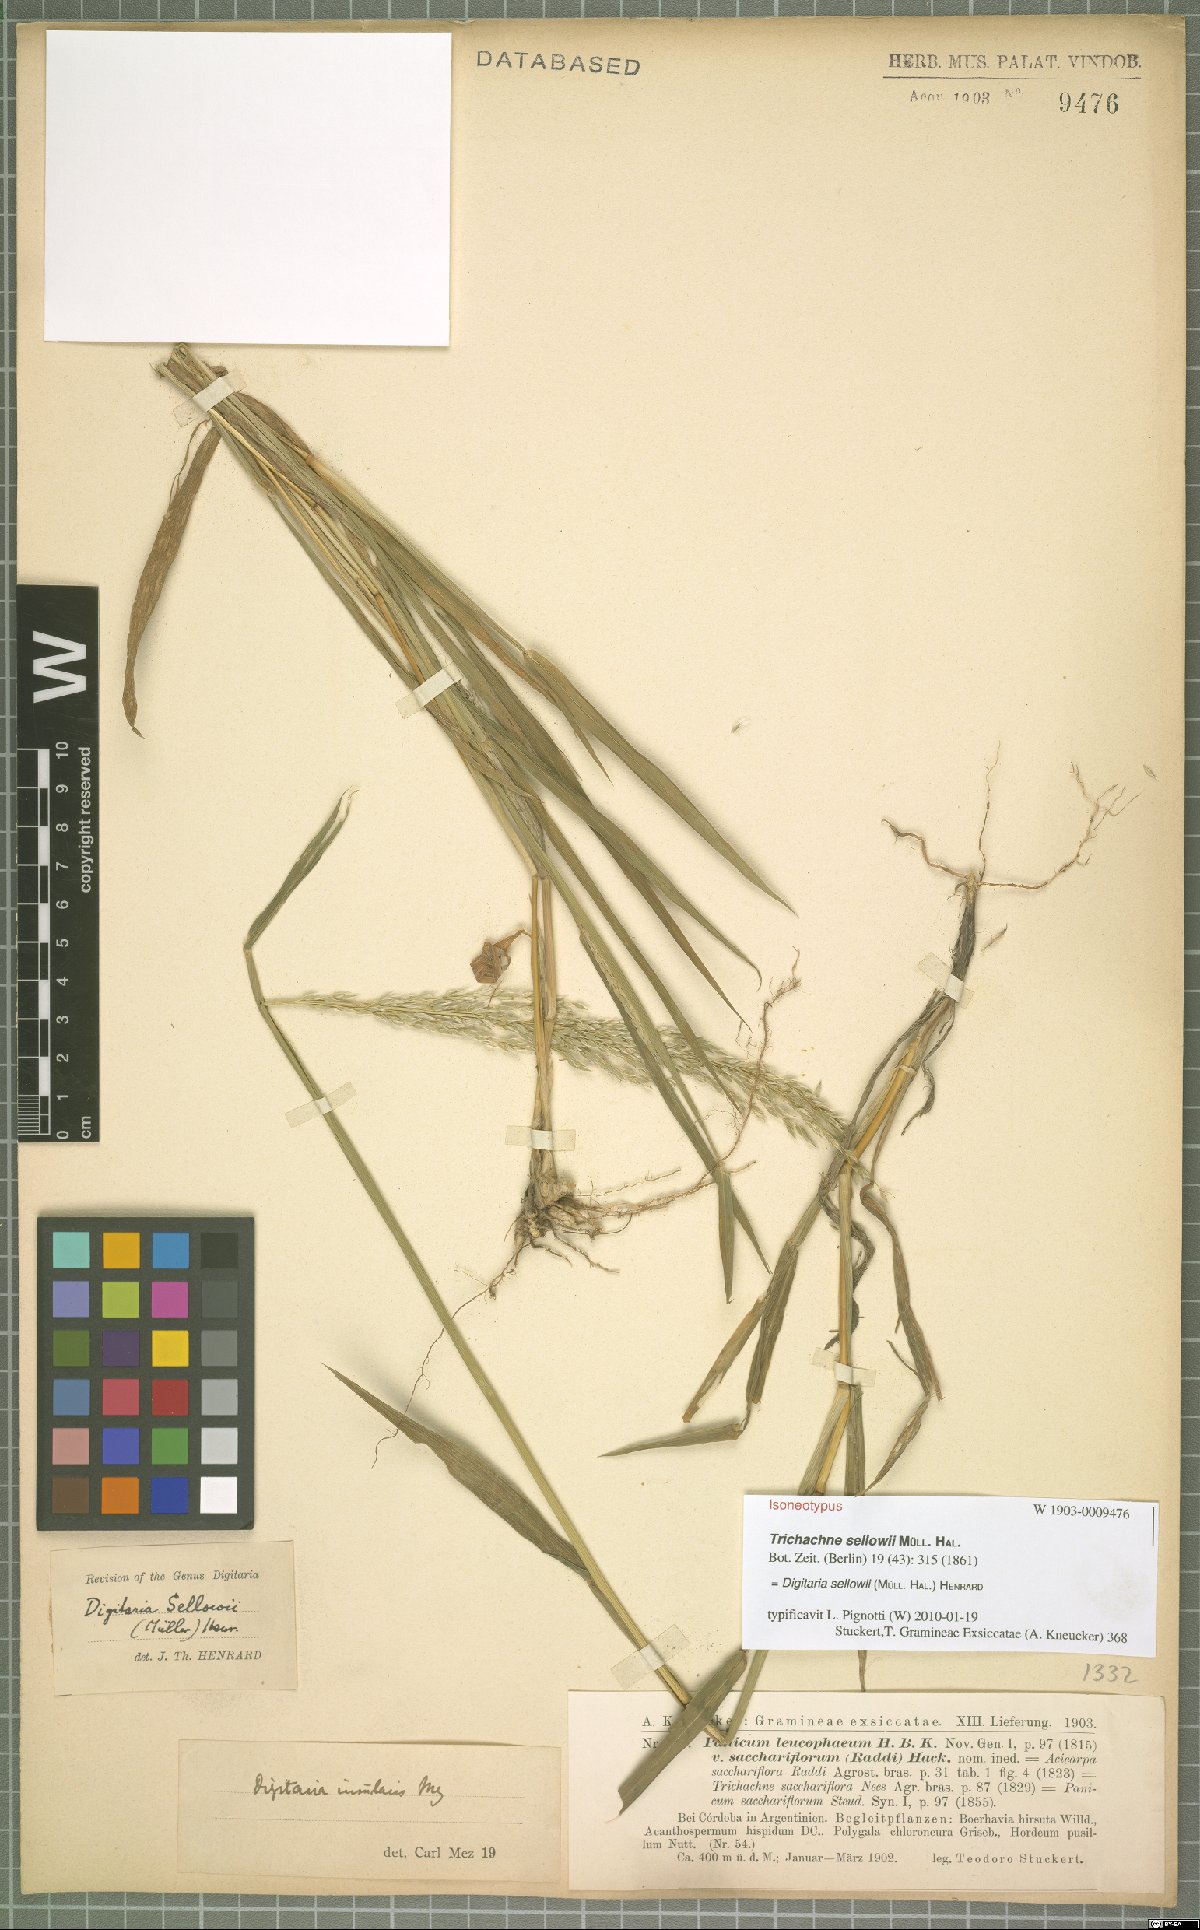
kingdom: Plantae
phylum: Tracheophyta
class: Liliopsida
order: Poales
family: Poaceae
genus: Digitaria
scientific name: Digitaria sellowii
